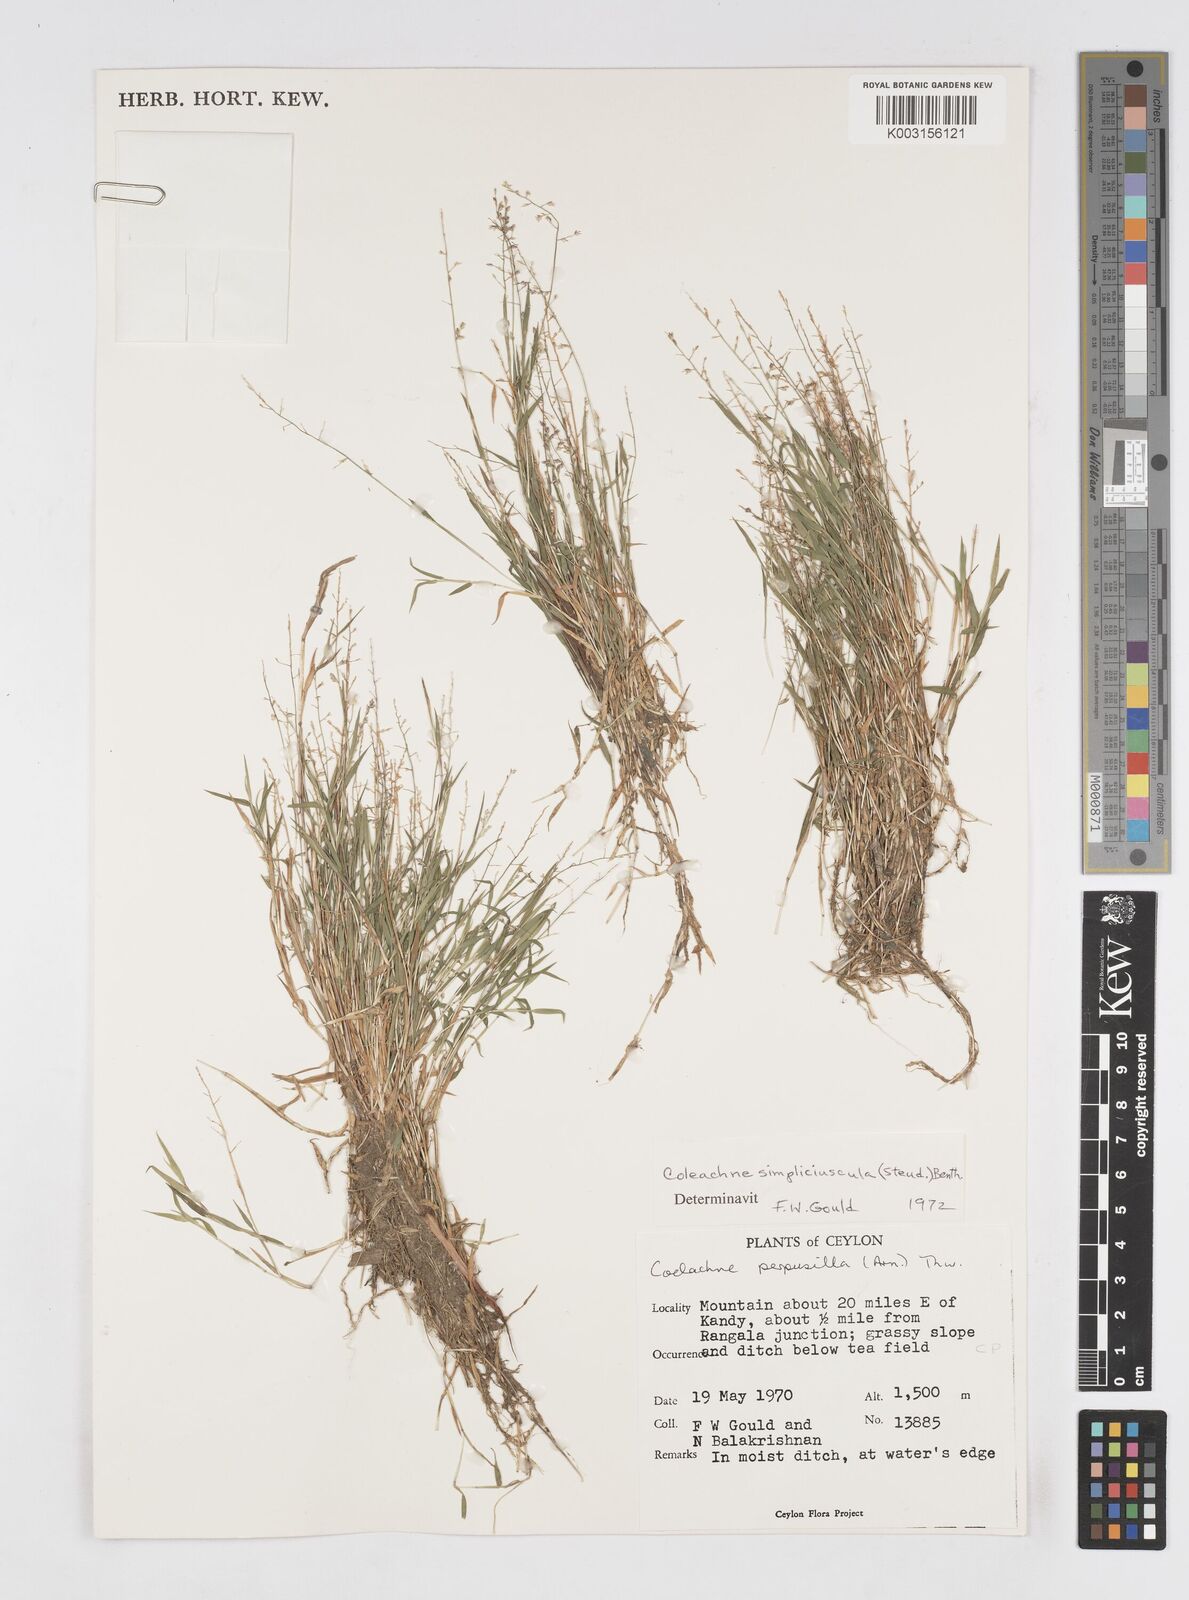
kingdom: Plantae
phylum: Tracheophyta
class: Liliopsida
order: Poales
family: Poaceae
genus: Coelachne
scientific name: Coelachne simpliciuscula
